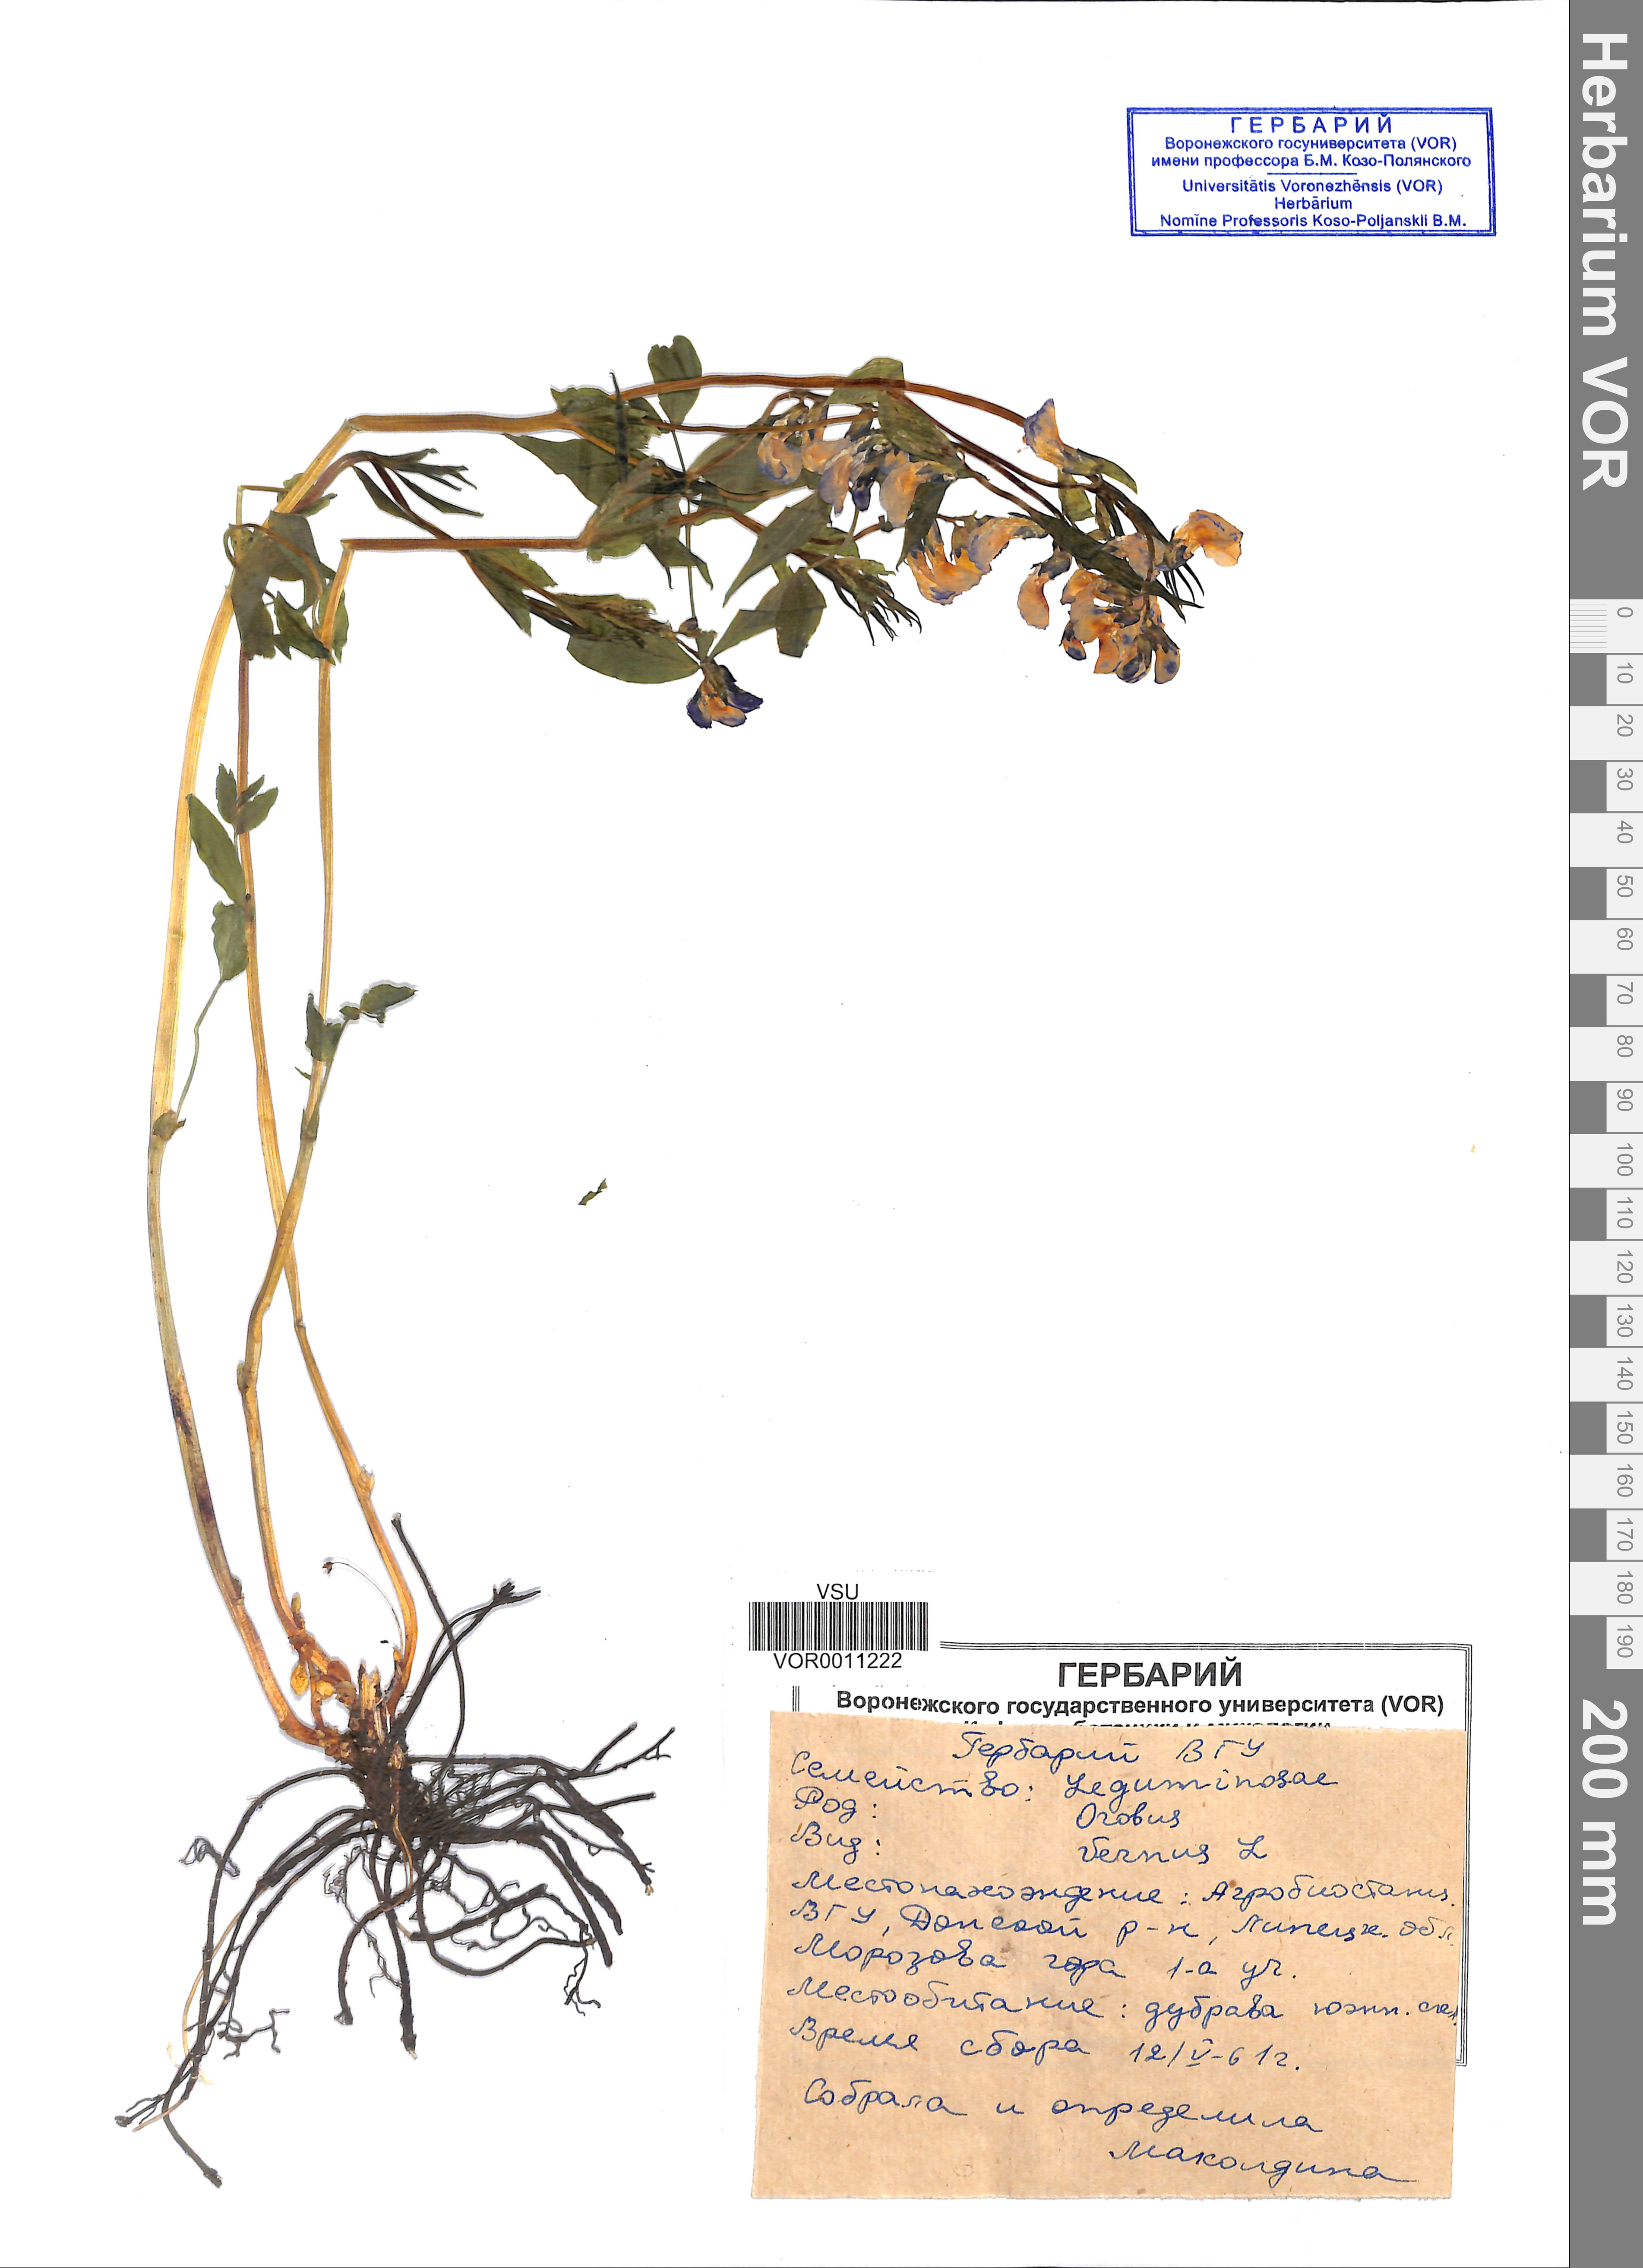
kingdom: Plantae
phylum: Tracheophyta
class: Magnoliopsida
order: Fabales
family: Fabaceae
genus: Lathyrus
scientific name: Lathyrus vernus
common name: Spring pea
